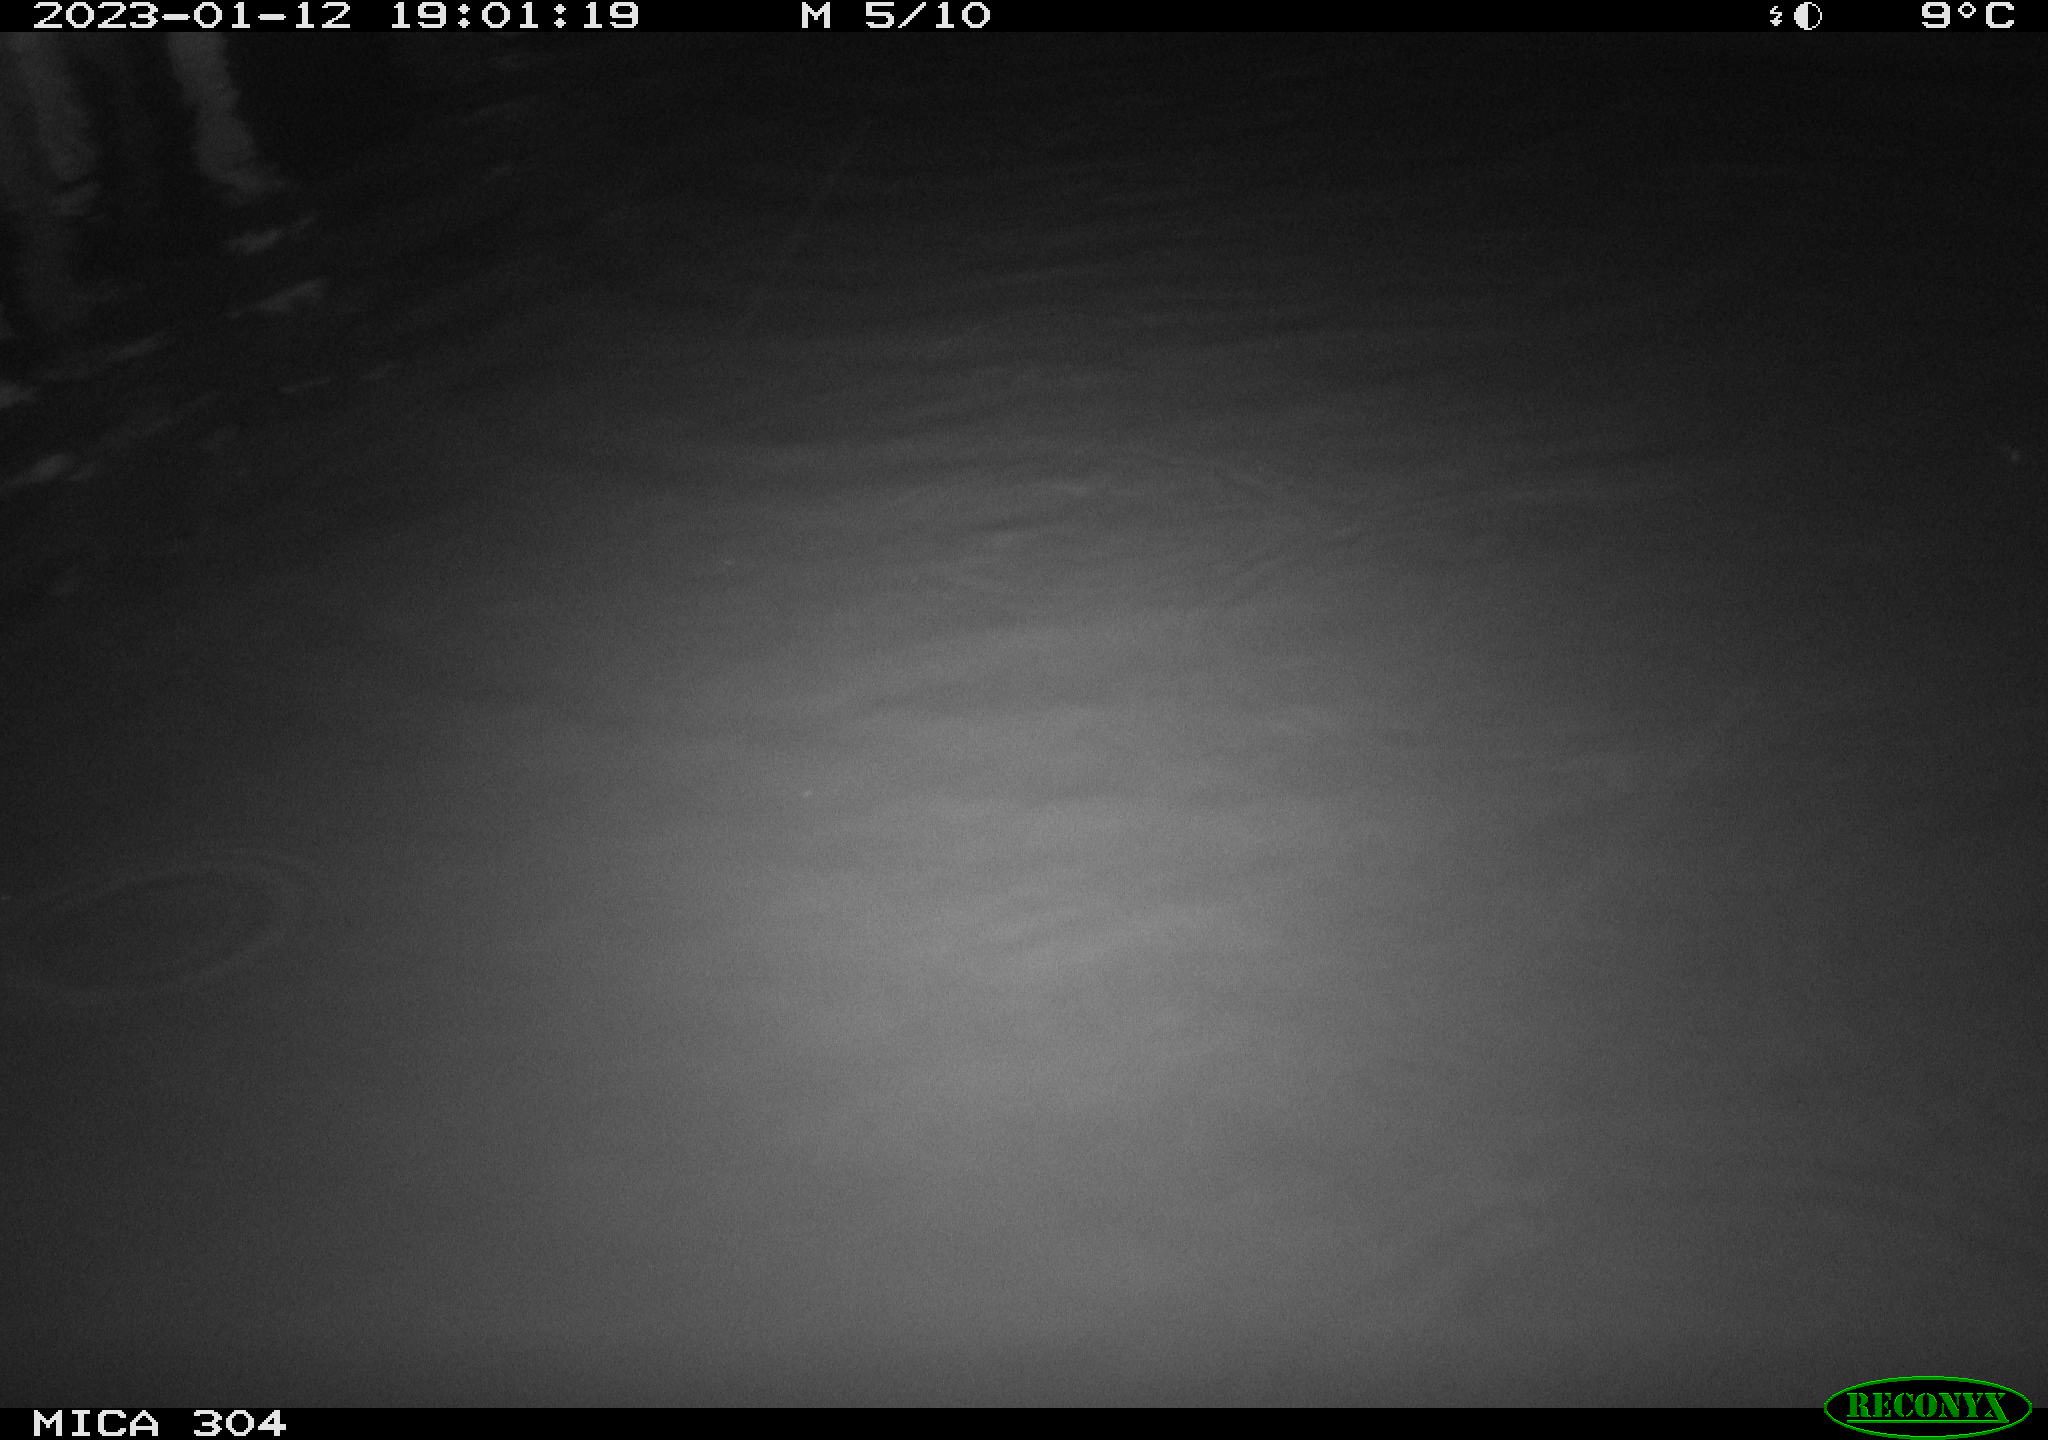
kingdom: Animalia
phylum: Chordata
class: Mammalia
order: Rodentia
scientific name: Rodentia
